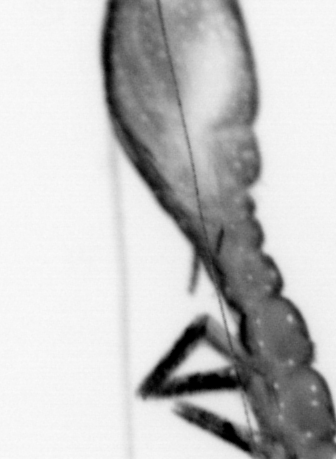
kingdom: Animalia
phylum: Annelida
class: Polychaeta
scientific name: Polychaeta
